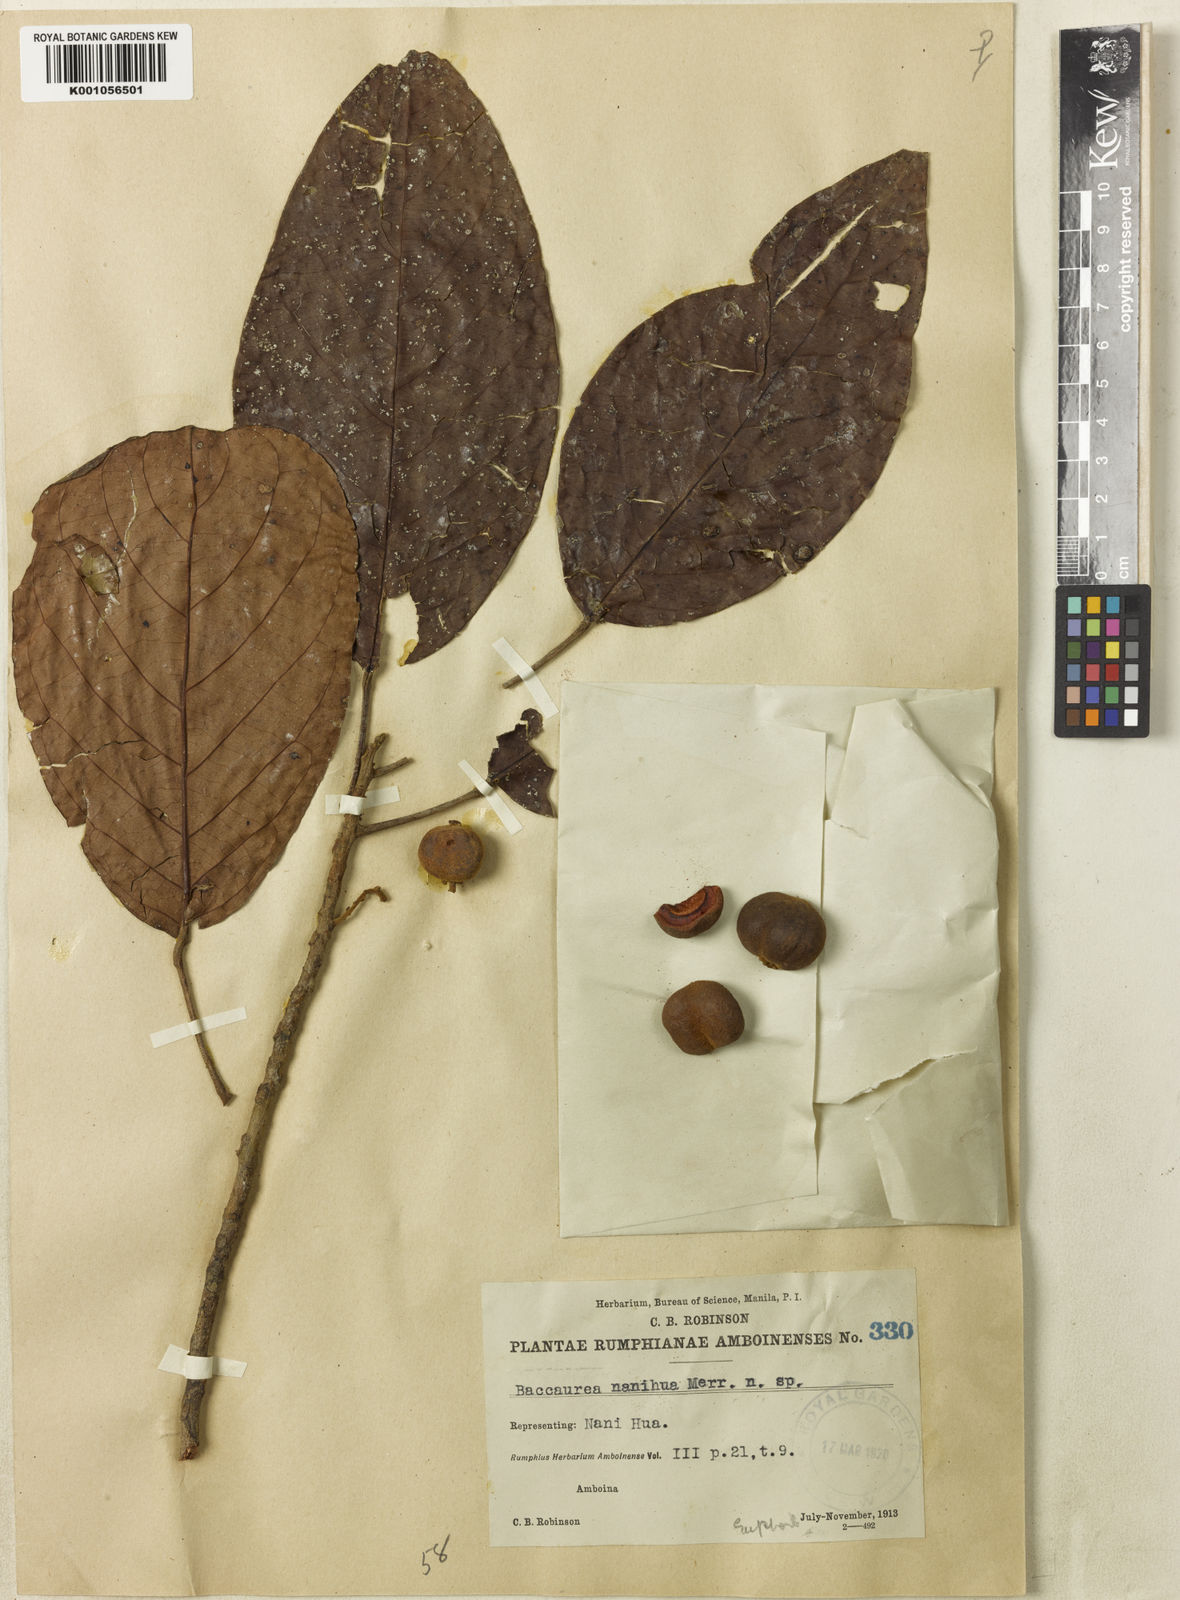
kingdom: Plantae
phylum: Tracheophyta
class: Magnoliopsida
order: Malpighiales
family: Phyllanthaceae
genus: Baccaurea
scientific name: Baccaurea nanihua
